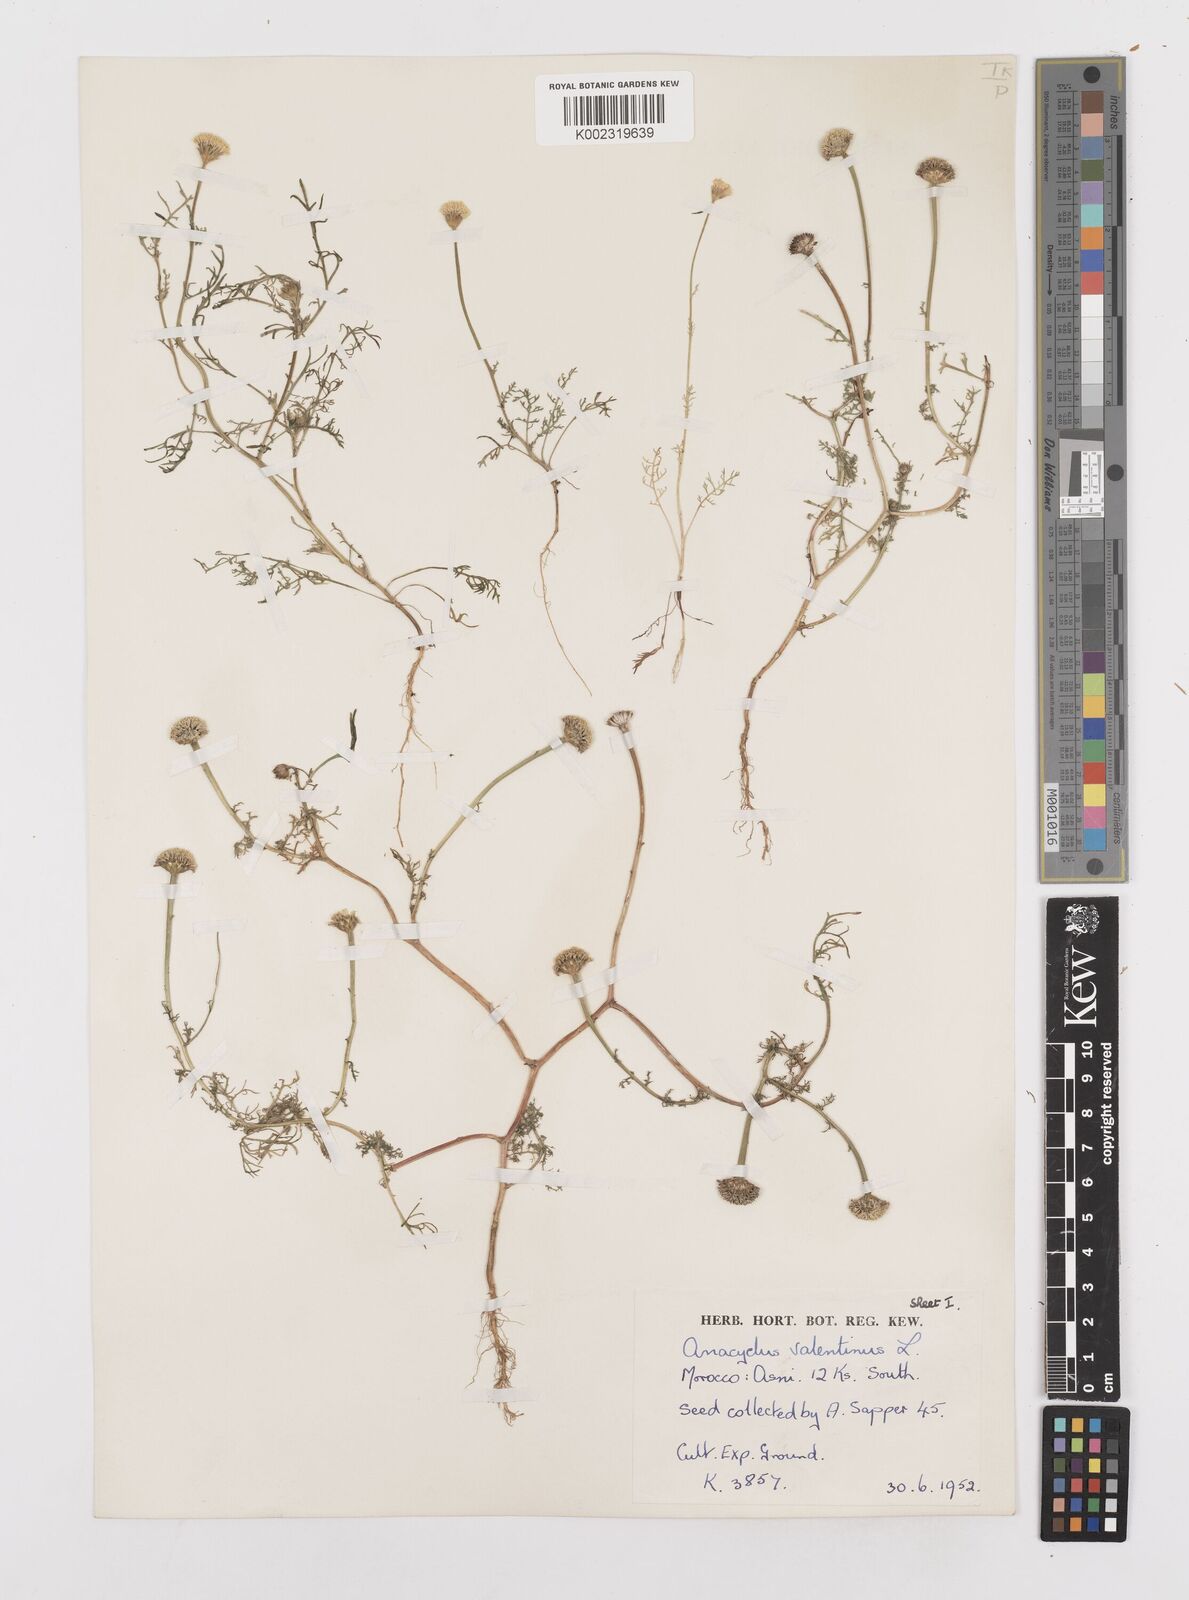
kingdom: Plantae
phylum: Tracheophyta
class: Magnoliopsida
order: Asterales
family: Asteraceae
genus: Anacyclus
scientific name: Anacyclus valentinus
